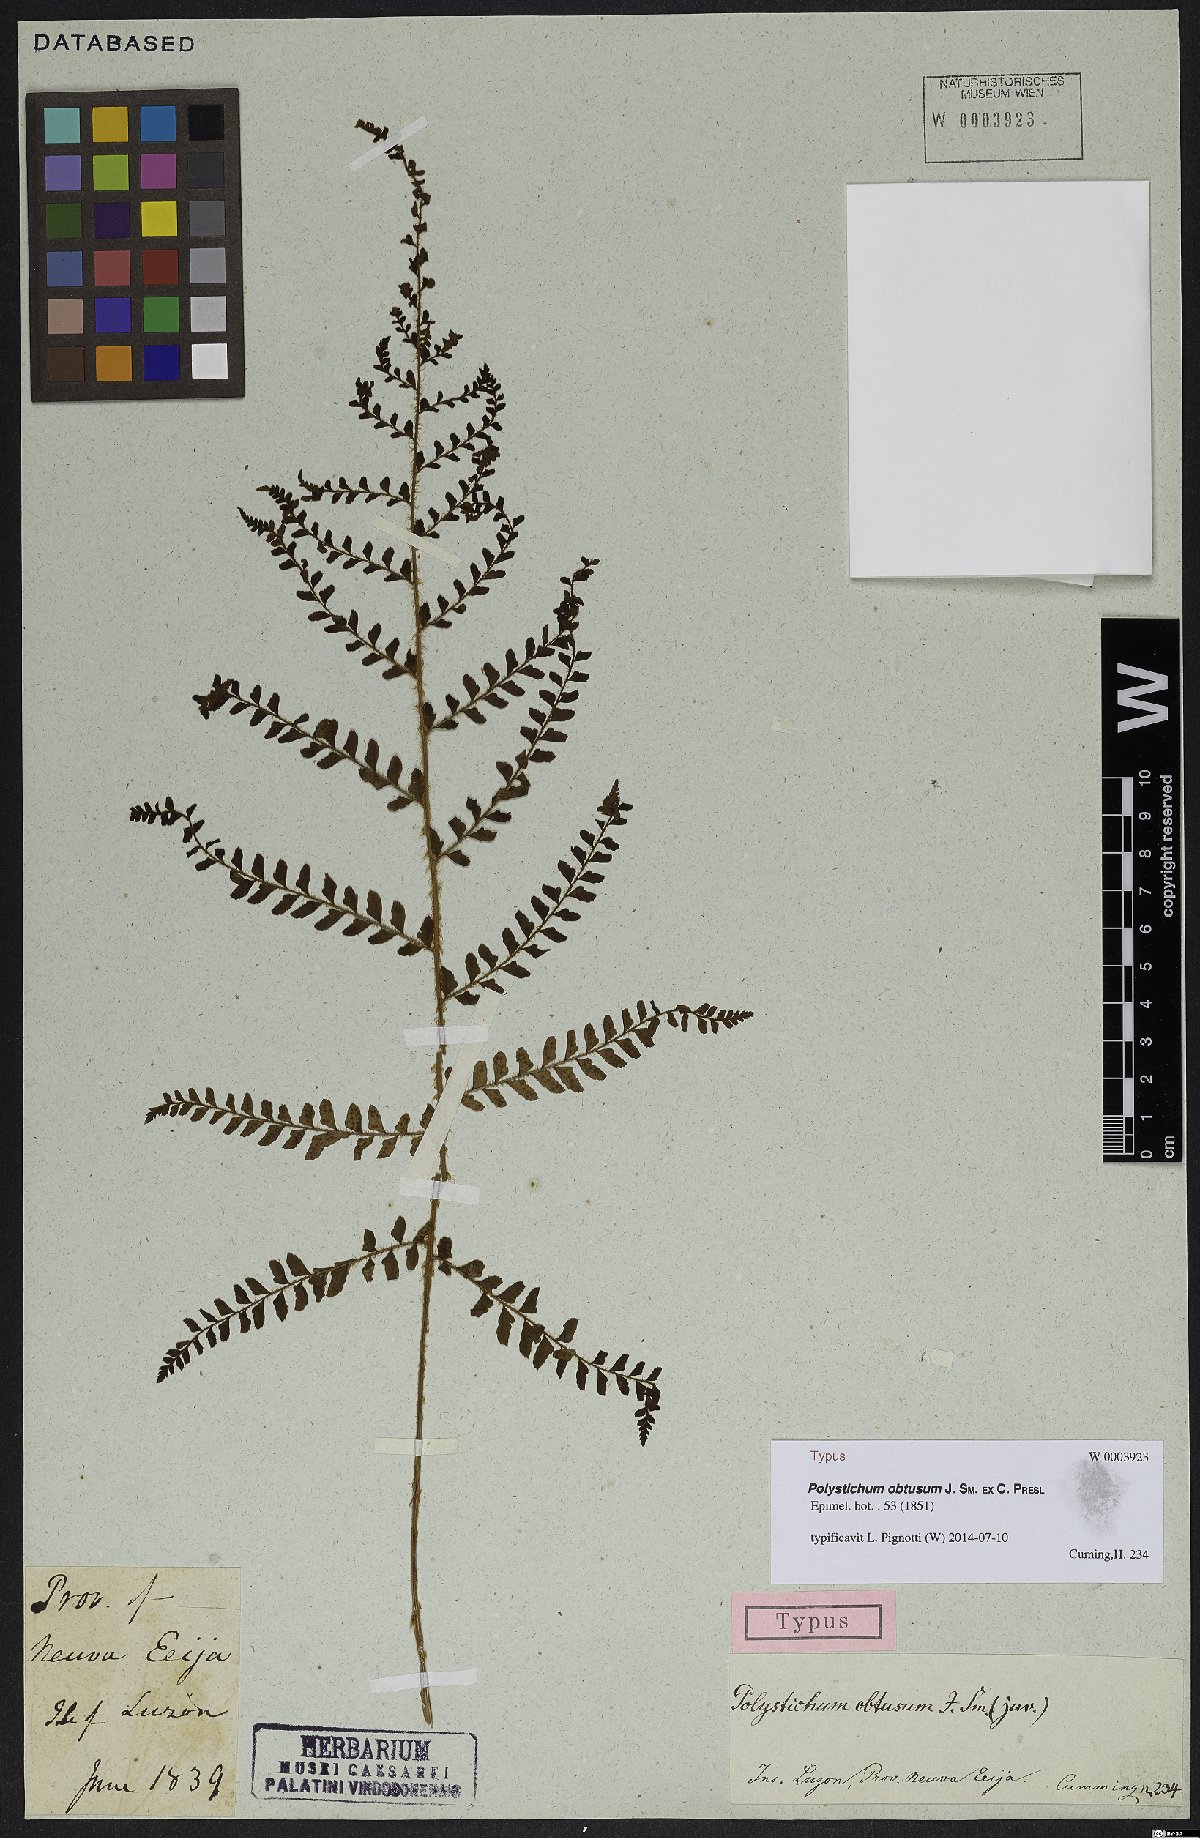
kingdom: Plantae
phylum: Tracheophyta
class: Polypodiopsida
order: Polypodiales
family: Dryopteridaceae
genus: Polystichum
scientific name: Polystichum obtusum
